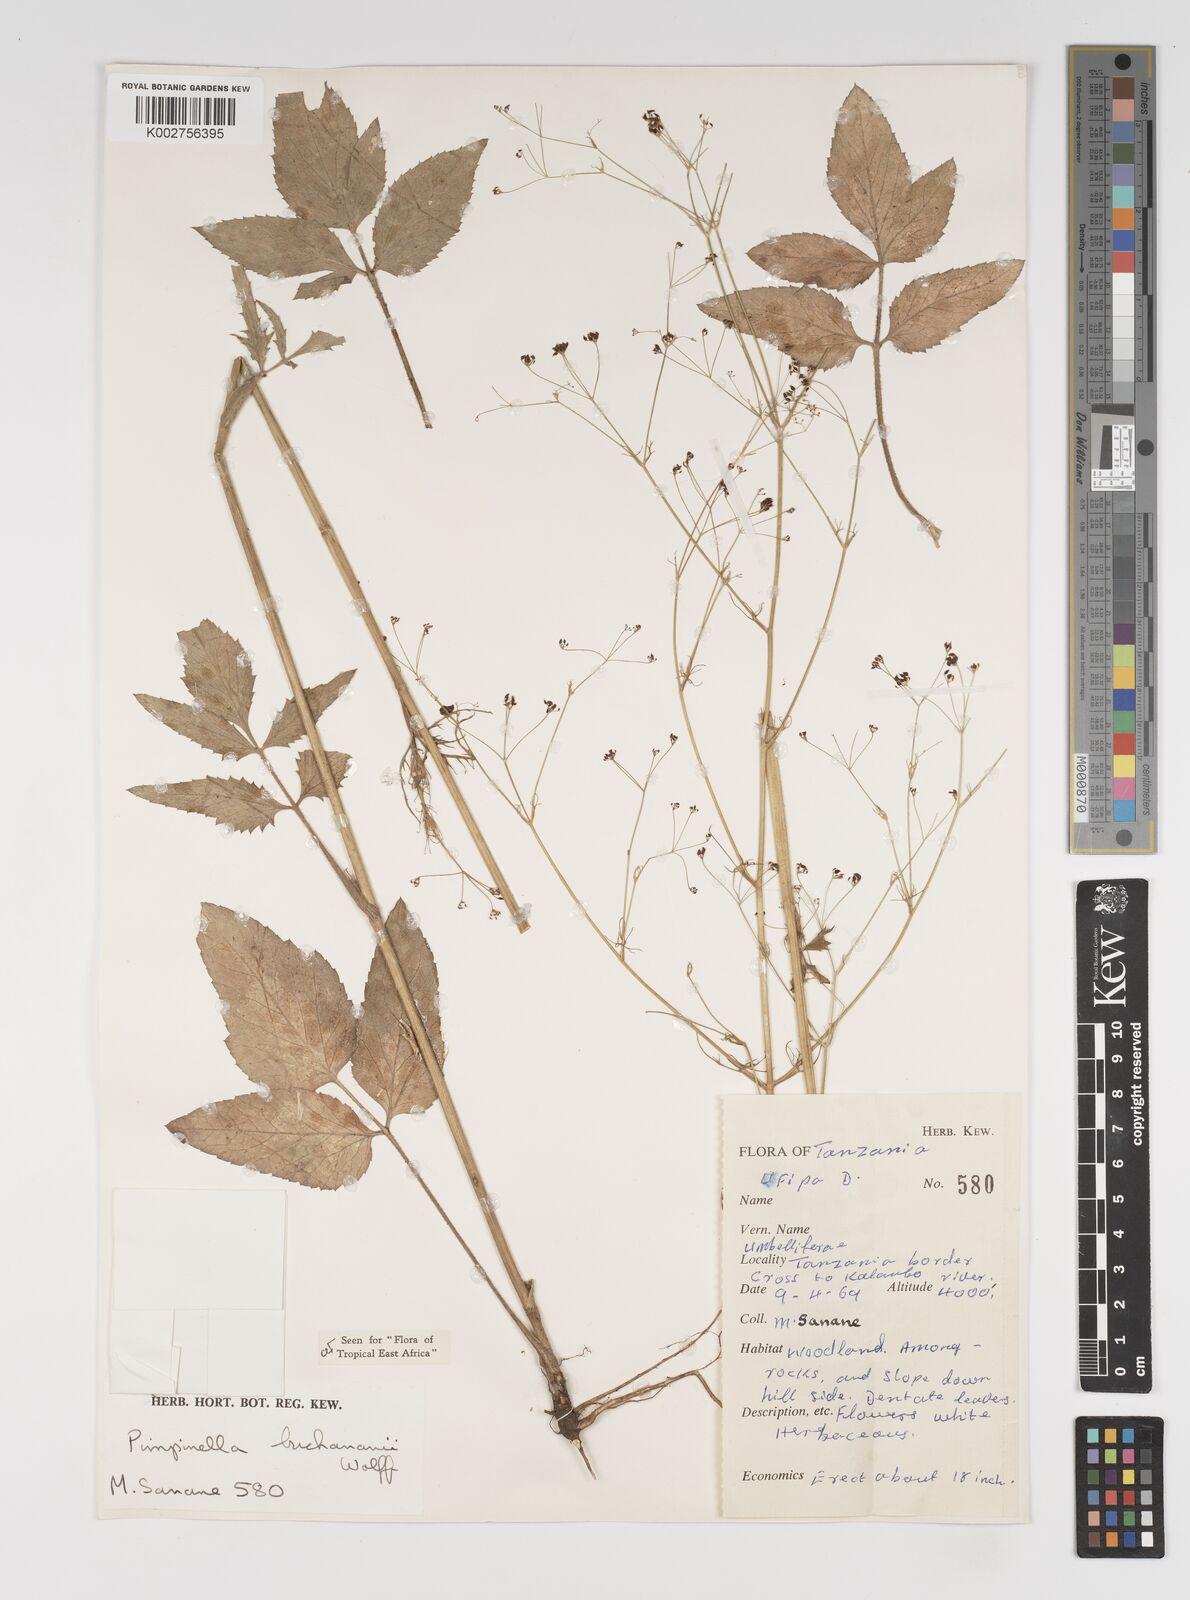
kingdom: Plantae
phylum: Tracheophyta
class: Magnoliopsida
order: Apiales
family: Apiaceae
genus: Pimpinella
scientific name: Pimpinella buchananii
